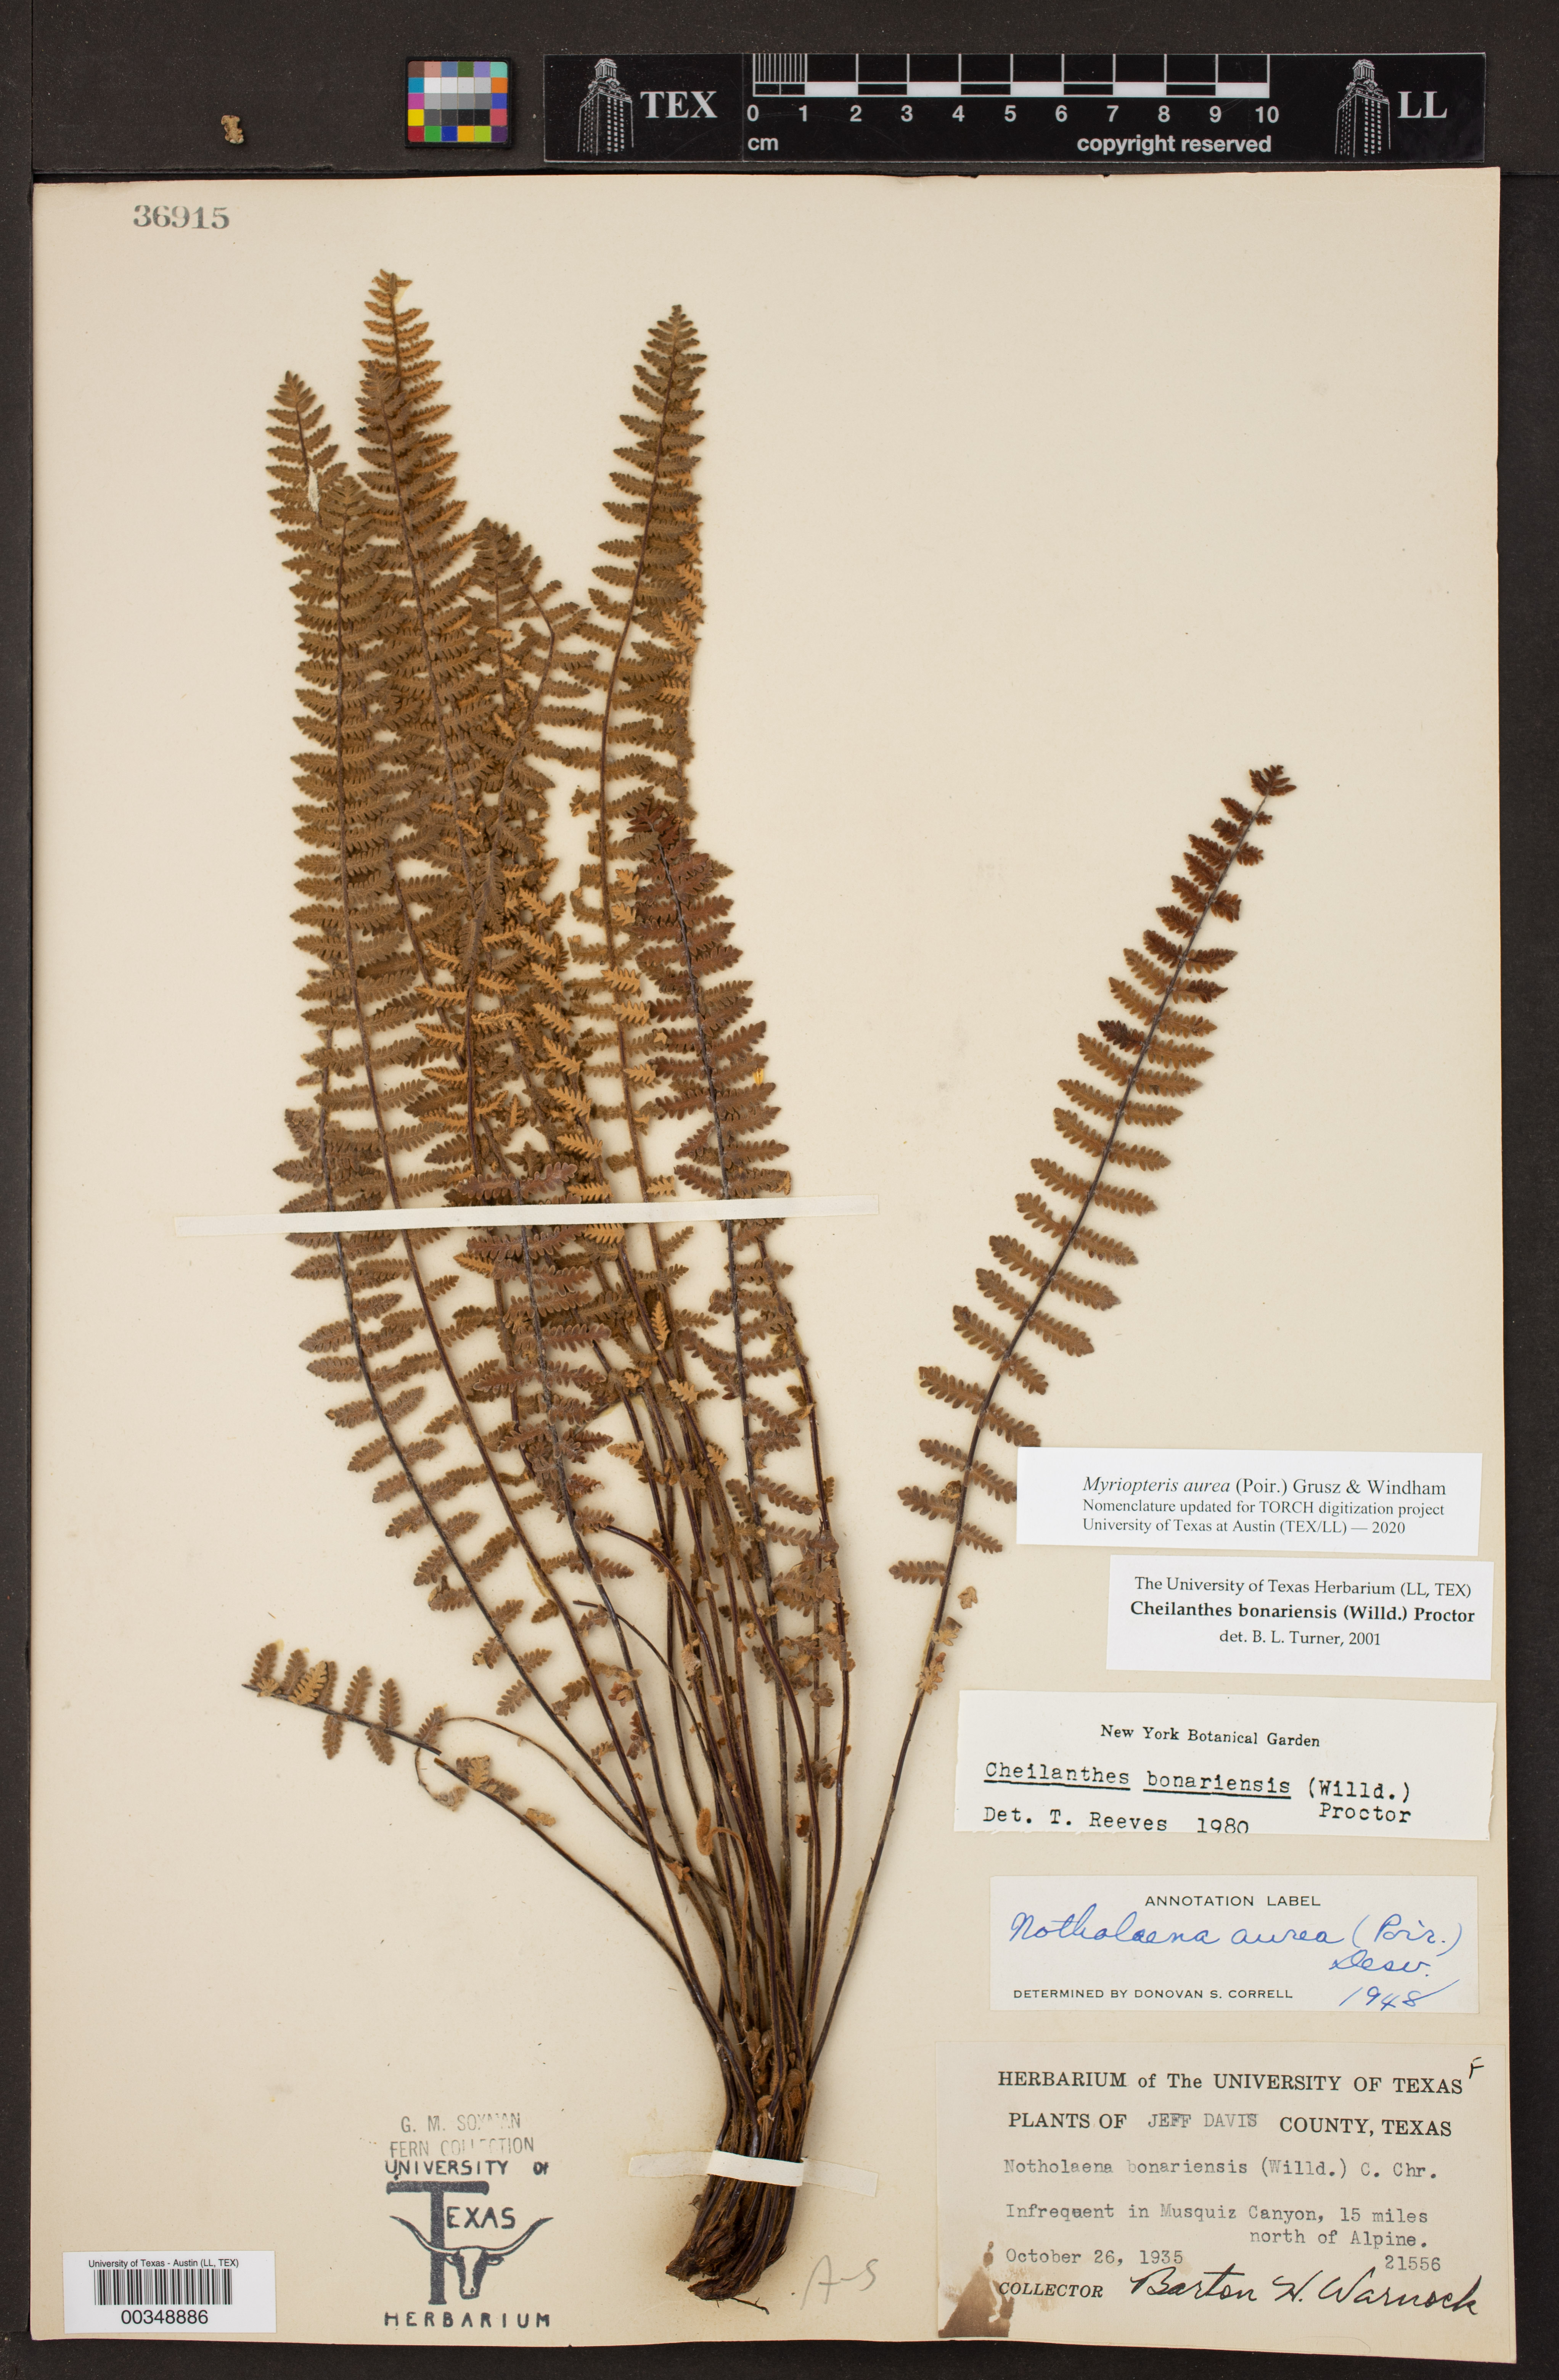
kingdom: Plantae
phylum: Tracheophyta
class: Polypodiopsida
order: Polypodiales
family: Pteridaceae
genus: Myriopteris
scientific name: Myriopteris aurea
